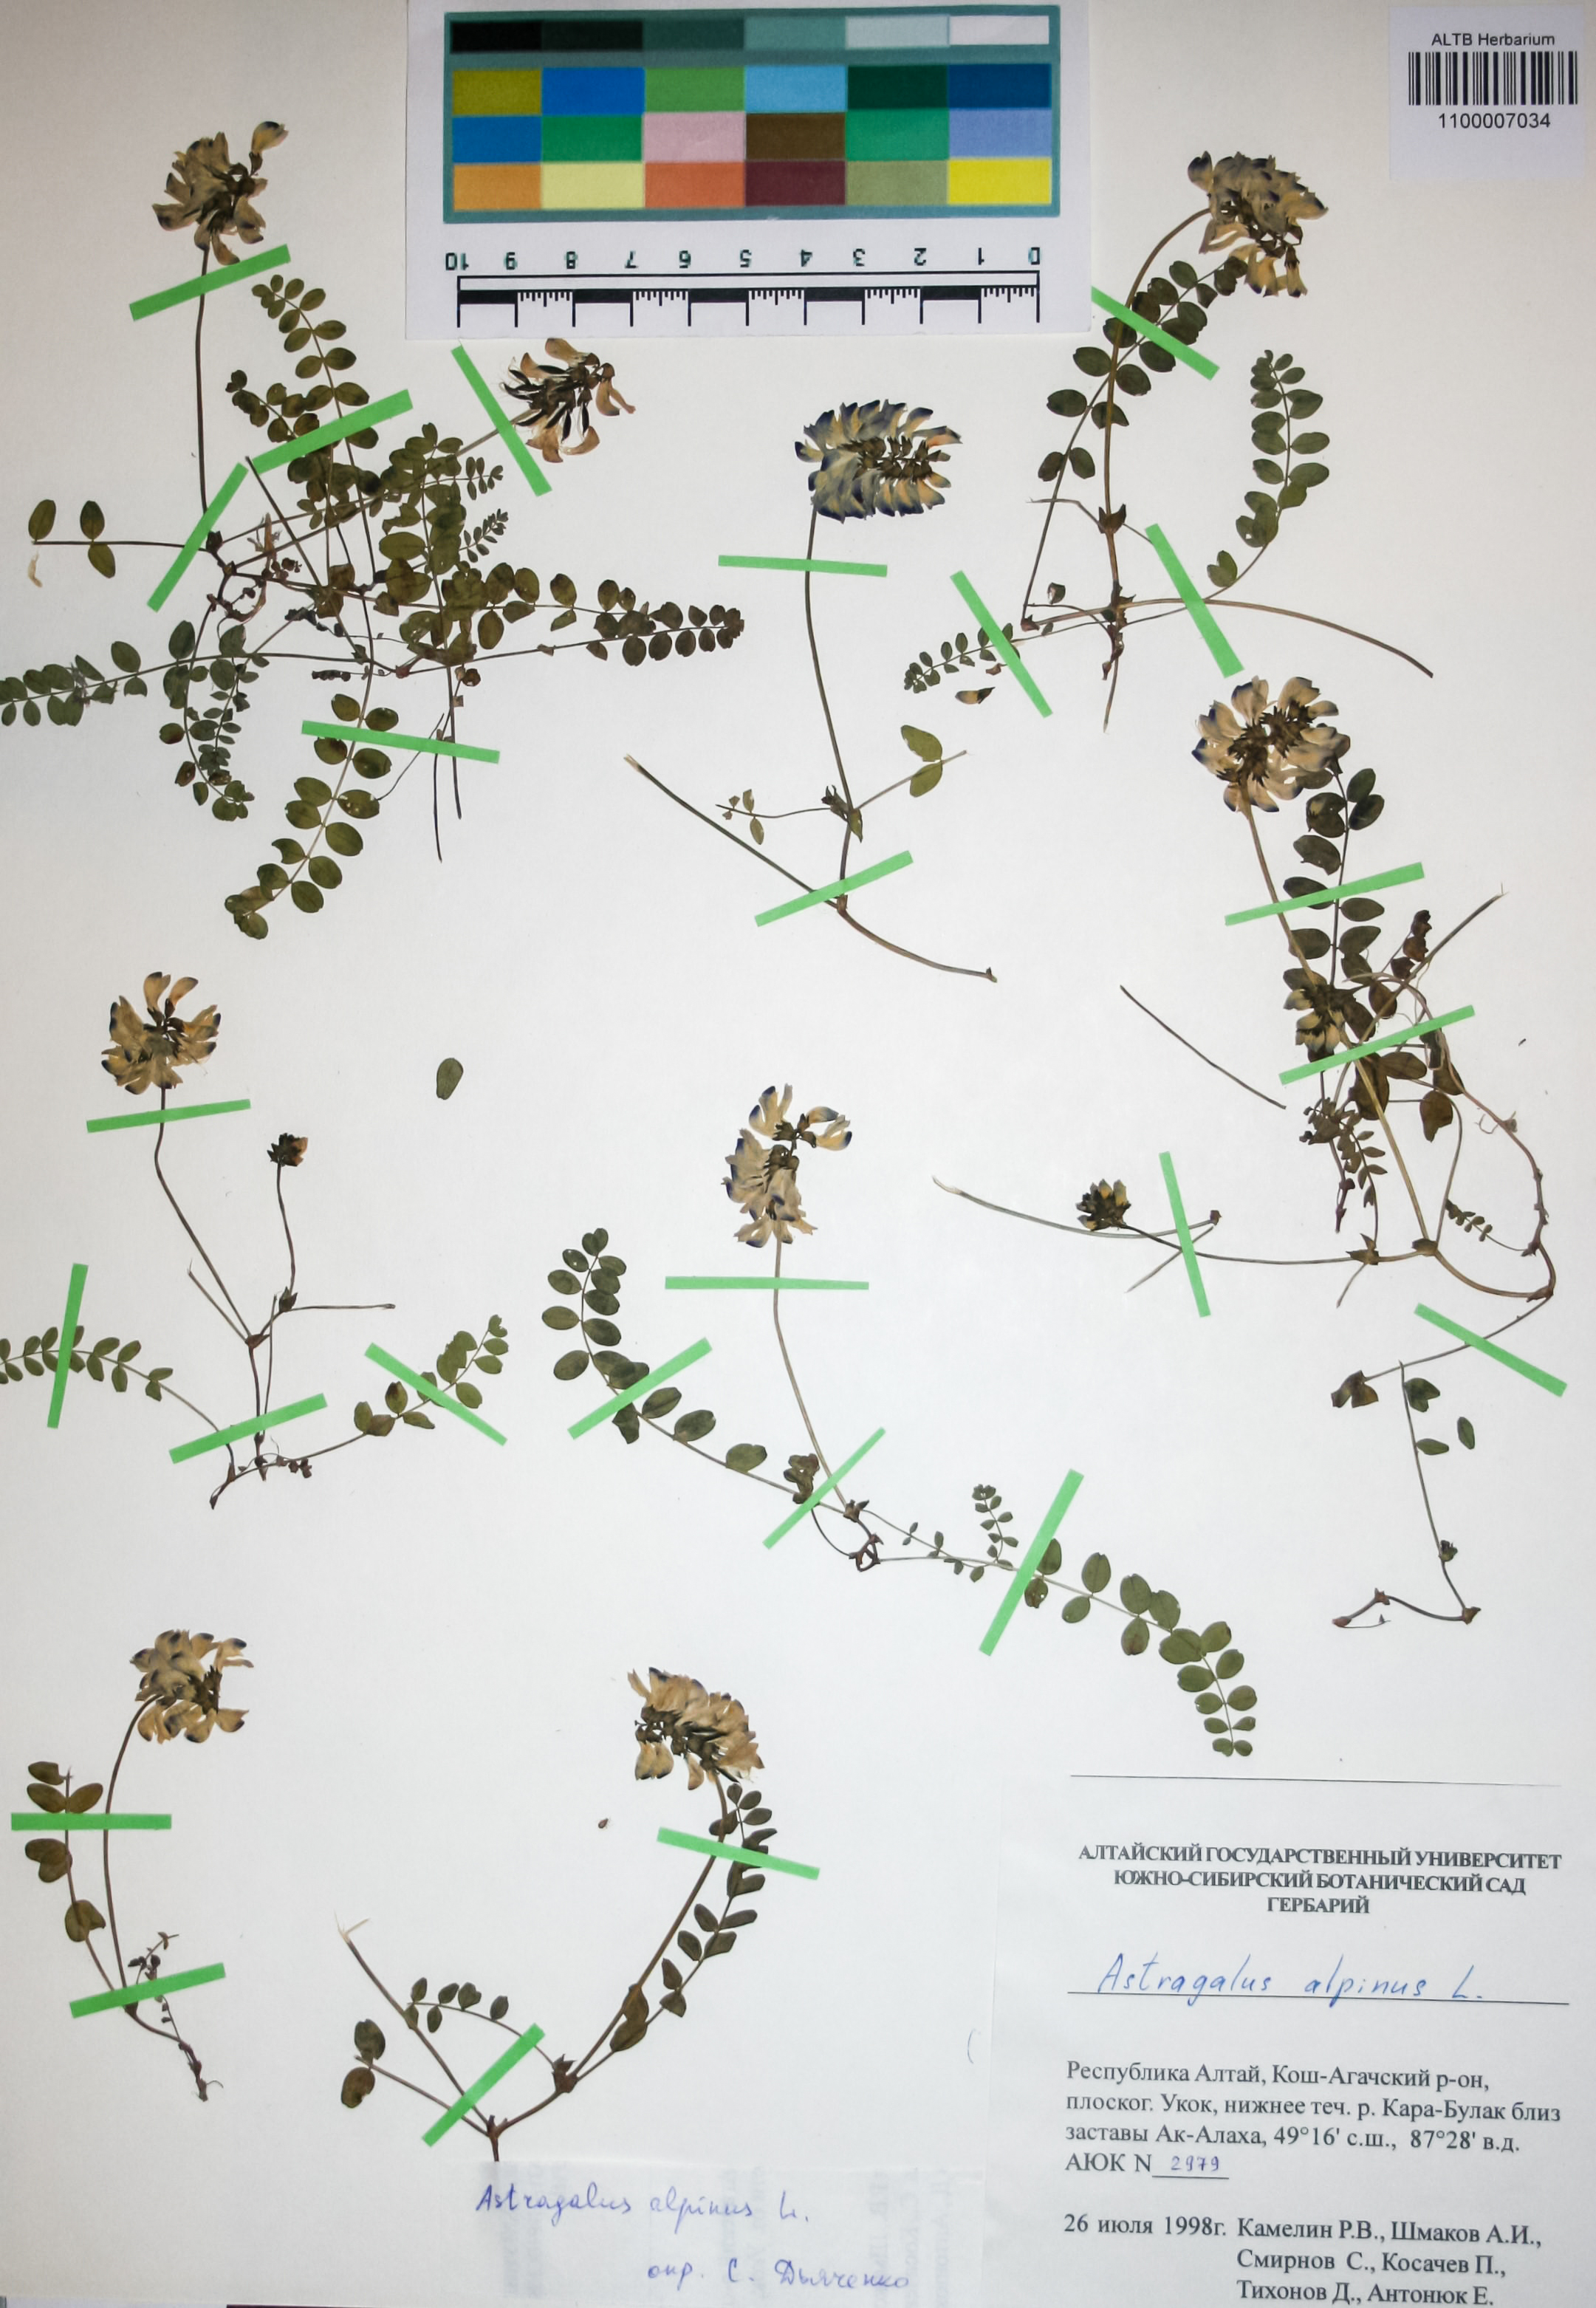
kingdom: Plantae
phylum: Tracheophyta
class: Magnoliopsida
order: Fabales
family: Fabaceae
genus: Astragalus
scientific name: Astragalus alpinus
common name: Alpine milk-vetch
